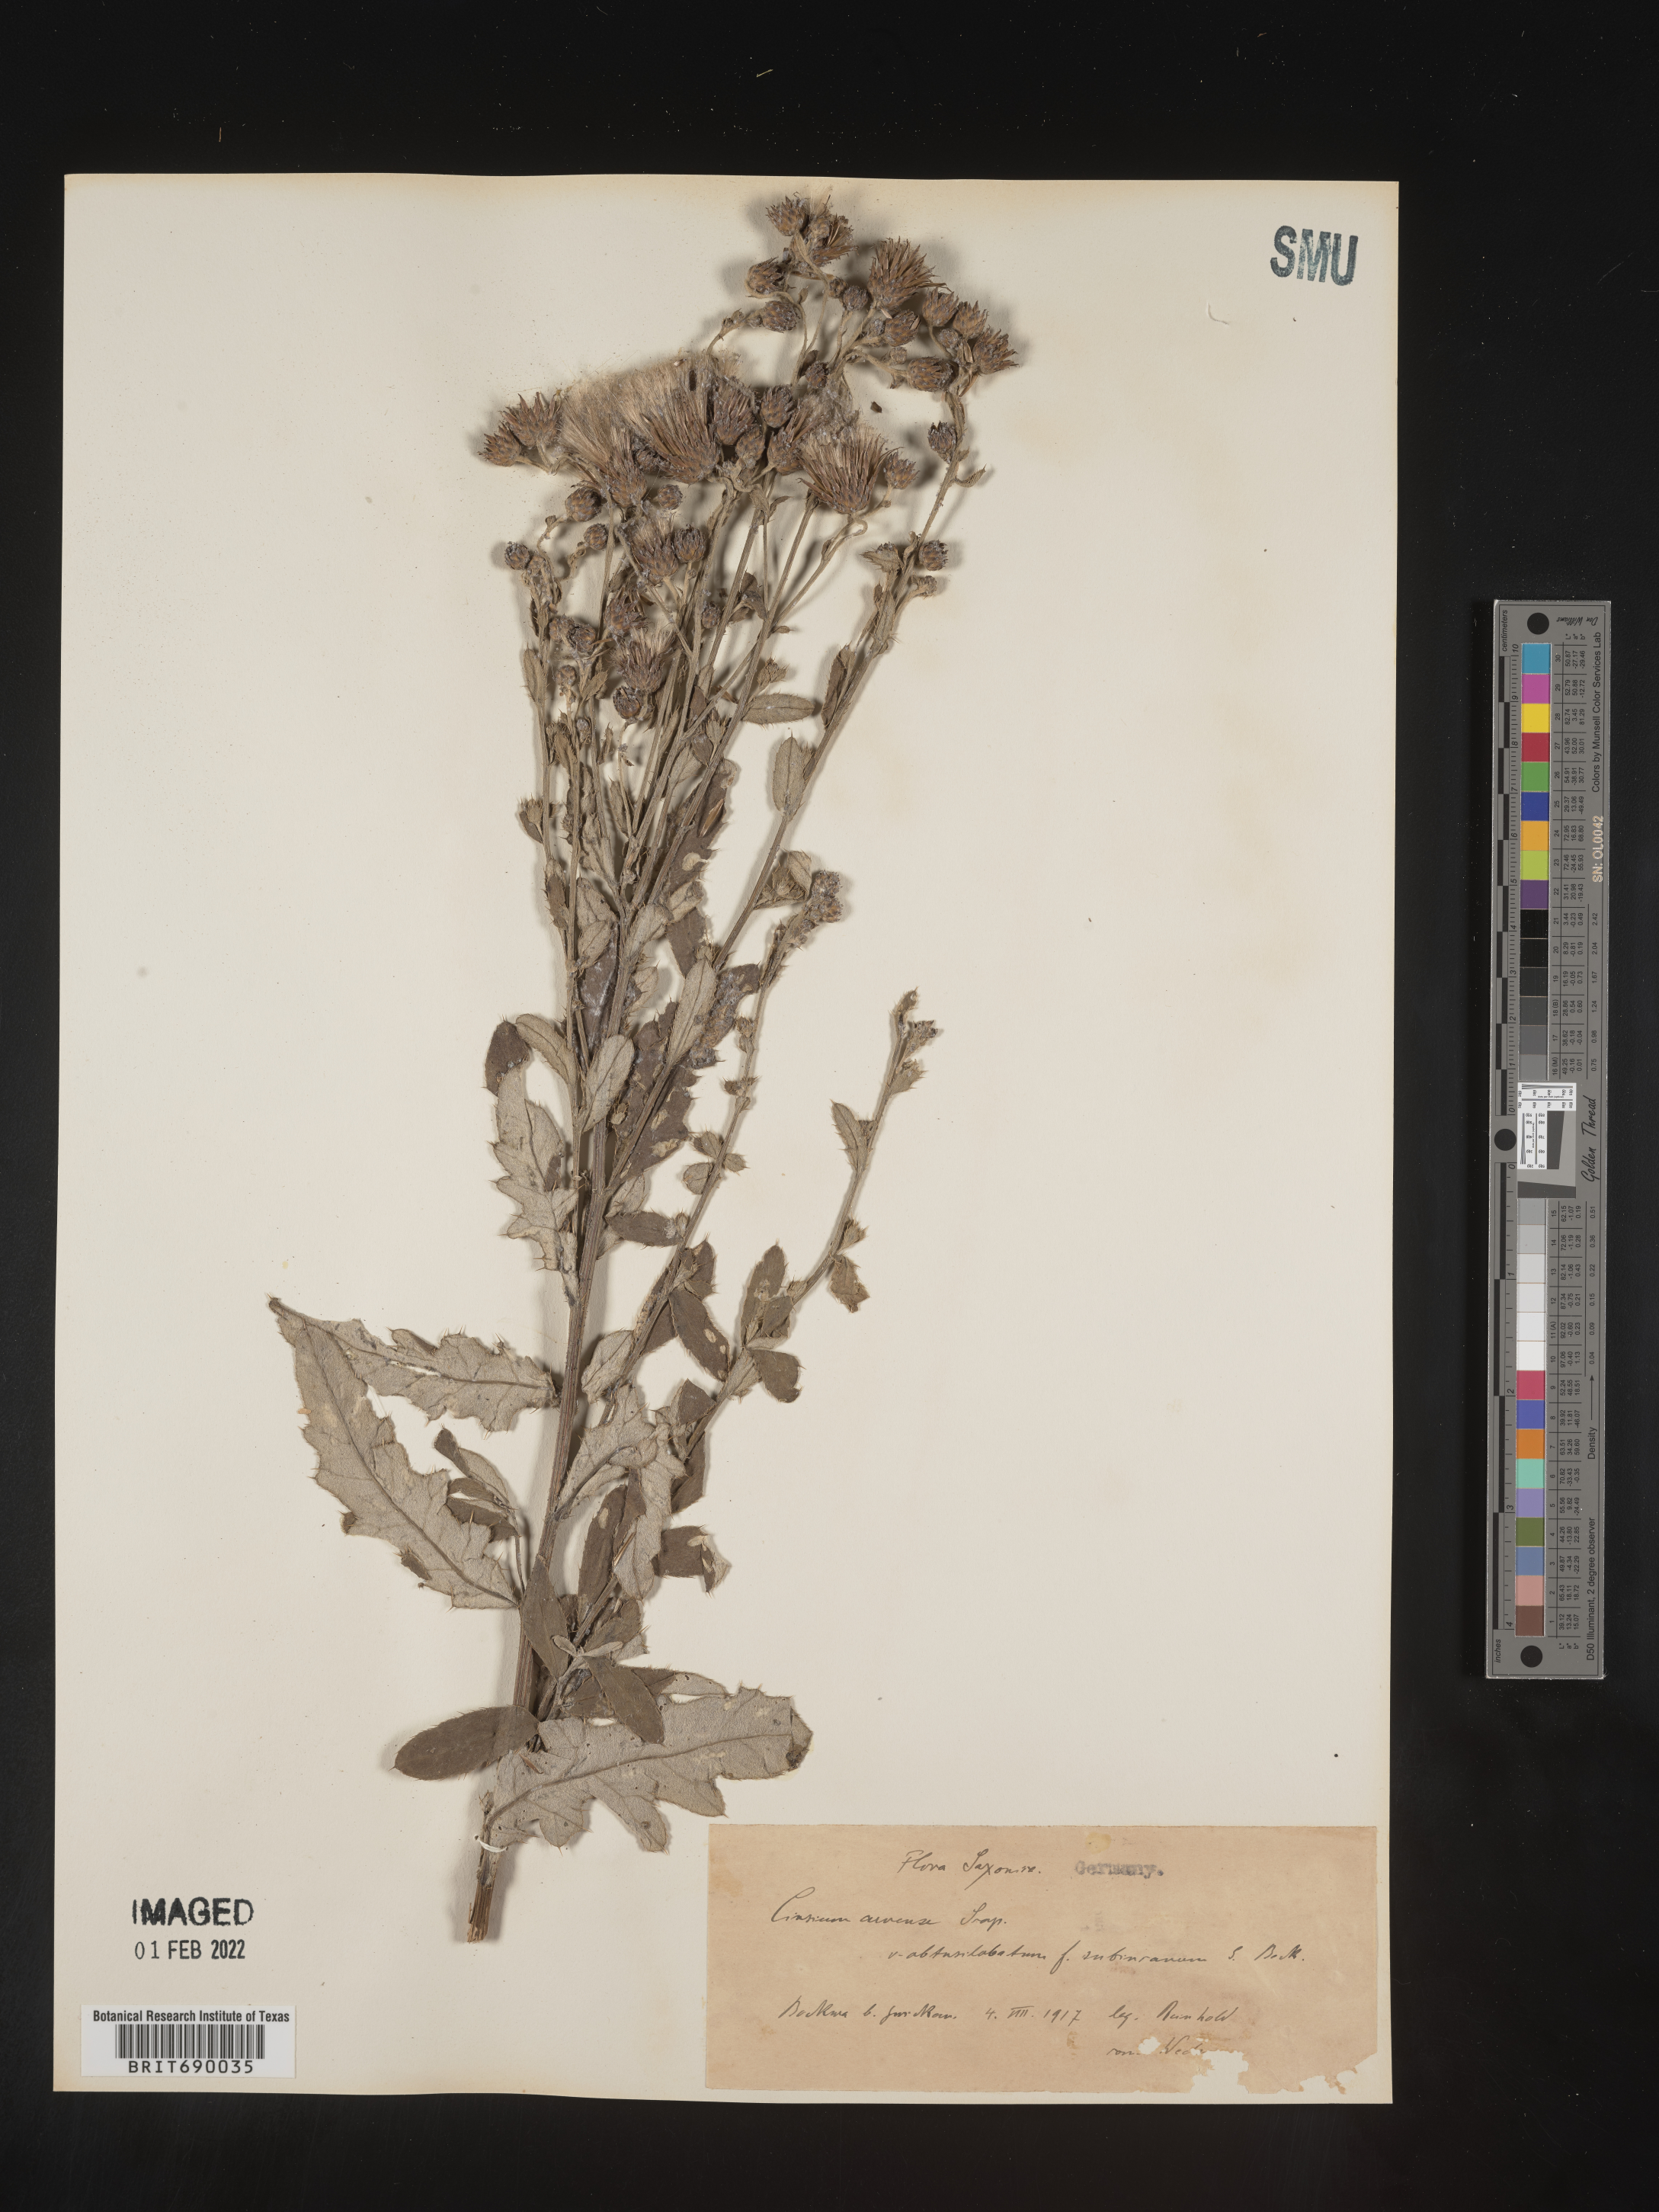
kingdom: Plantae
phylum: Tracheophyta
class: Magnoliopsida
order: Asterales
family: Asteraceae
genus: Cirsium
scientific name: Cirsium
